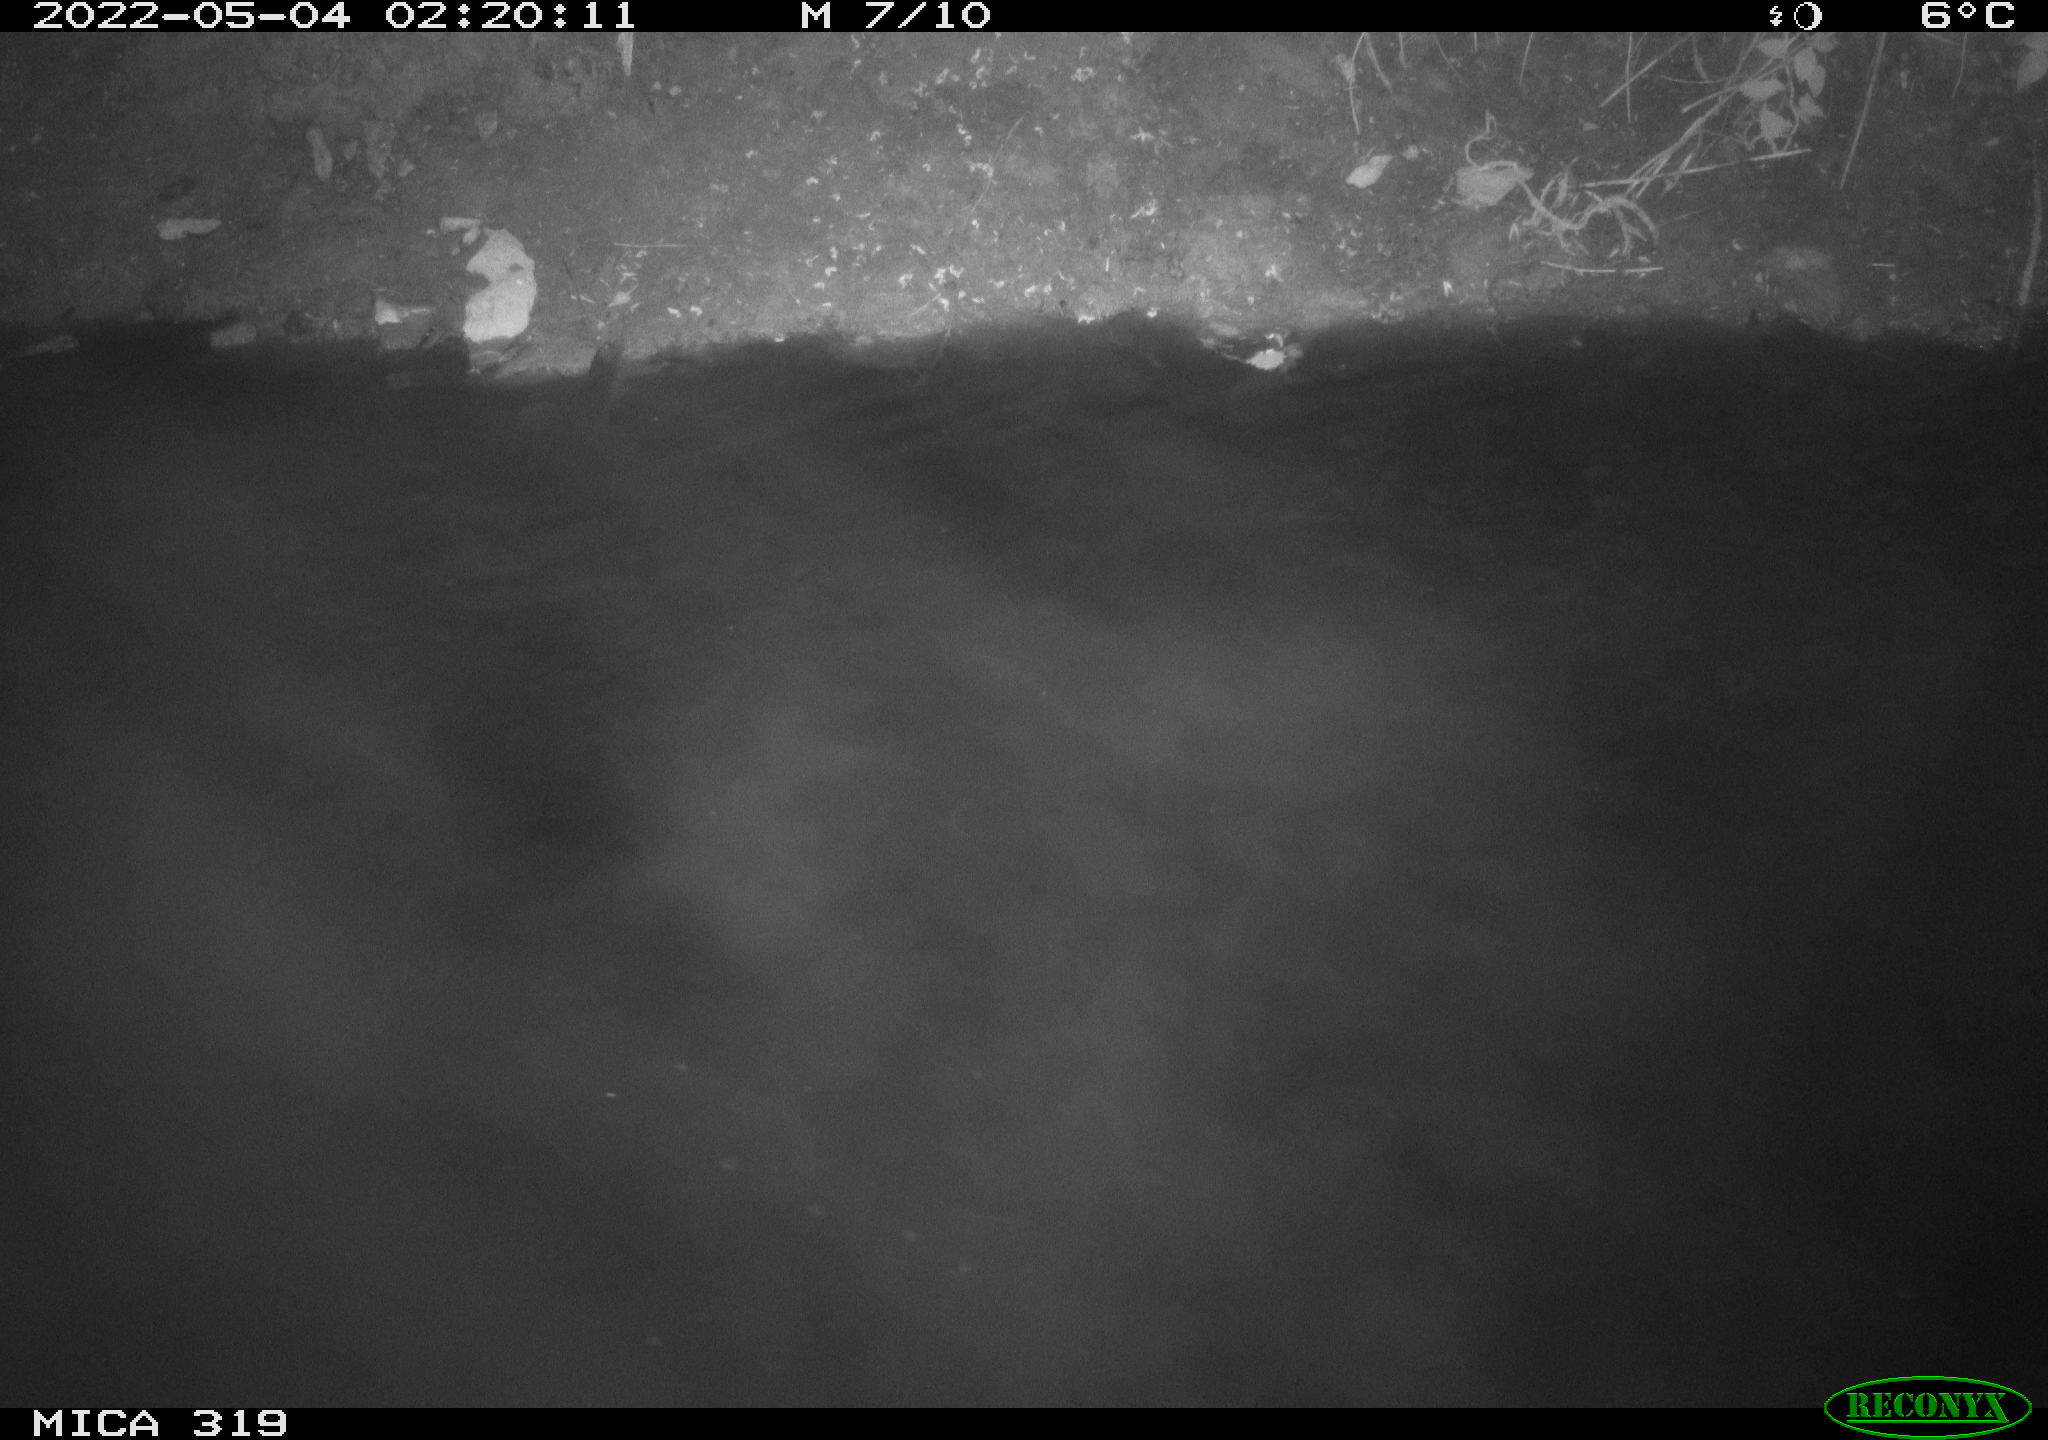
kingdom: Animalia
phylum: Chordata
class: Aves
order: Anseriformes
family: Anatidae
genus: Anas
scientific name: Anas platyrhynchos
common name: Mallard
